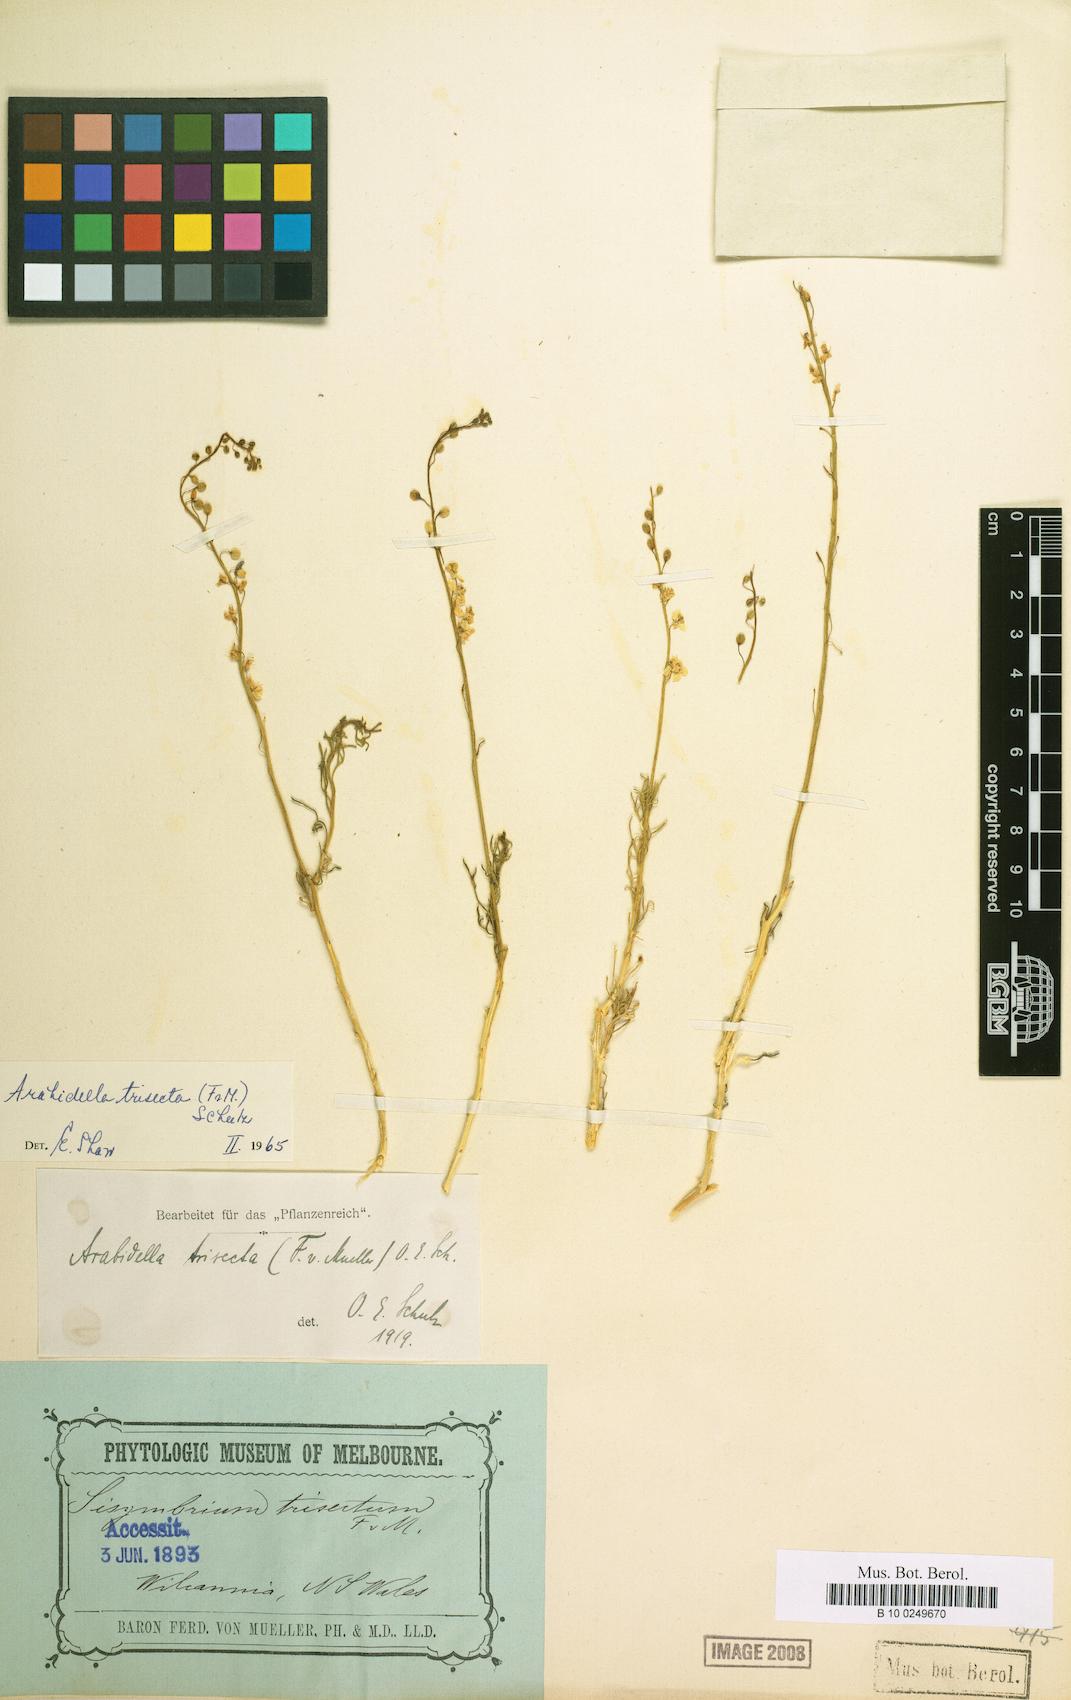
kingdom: Plantae
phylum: Tracheophyta
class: Magnoliopsida
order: Brassicales
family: Brassicaceae
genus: Arabidella
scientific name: Arabidella trisecta
